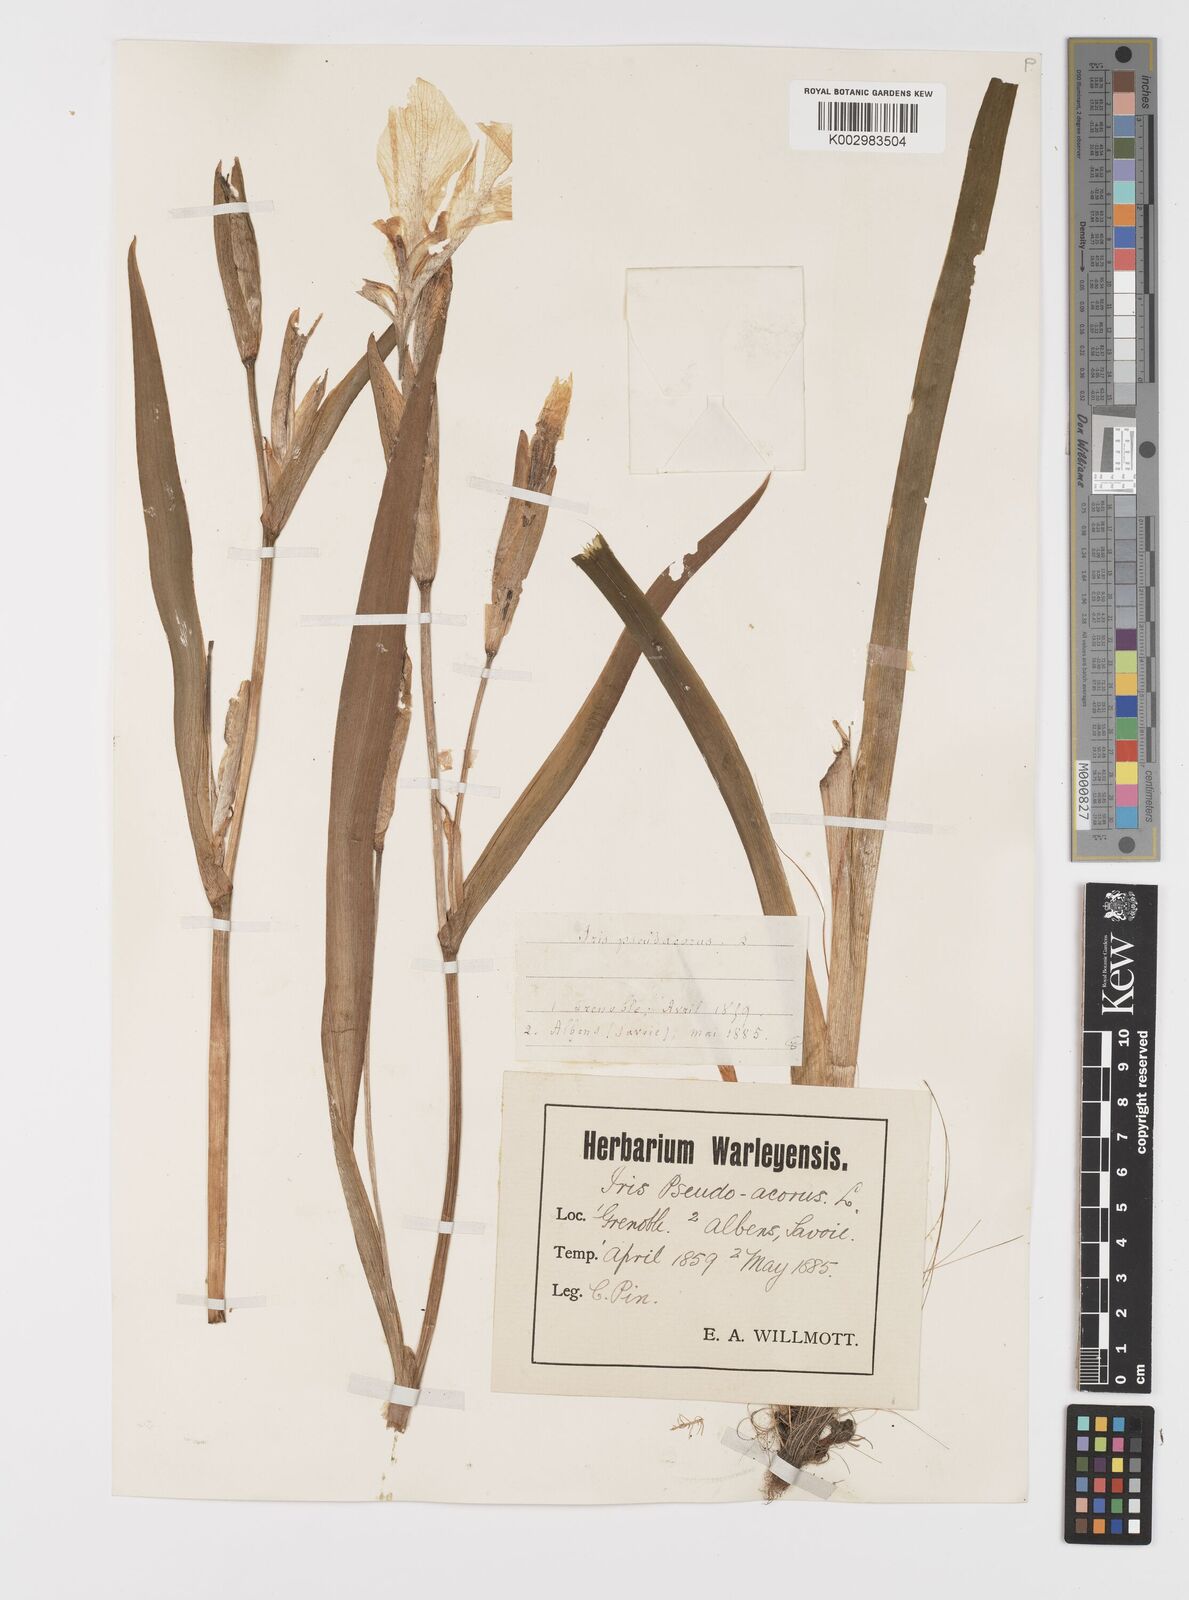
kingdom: Plantae
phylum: Tracheophyta
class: Liliopsida
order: Asparagales
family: Iridaceae
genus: Iris
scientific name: Iris pseudacorus
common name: Yellow flag
